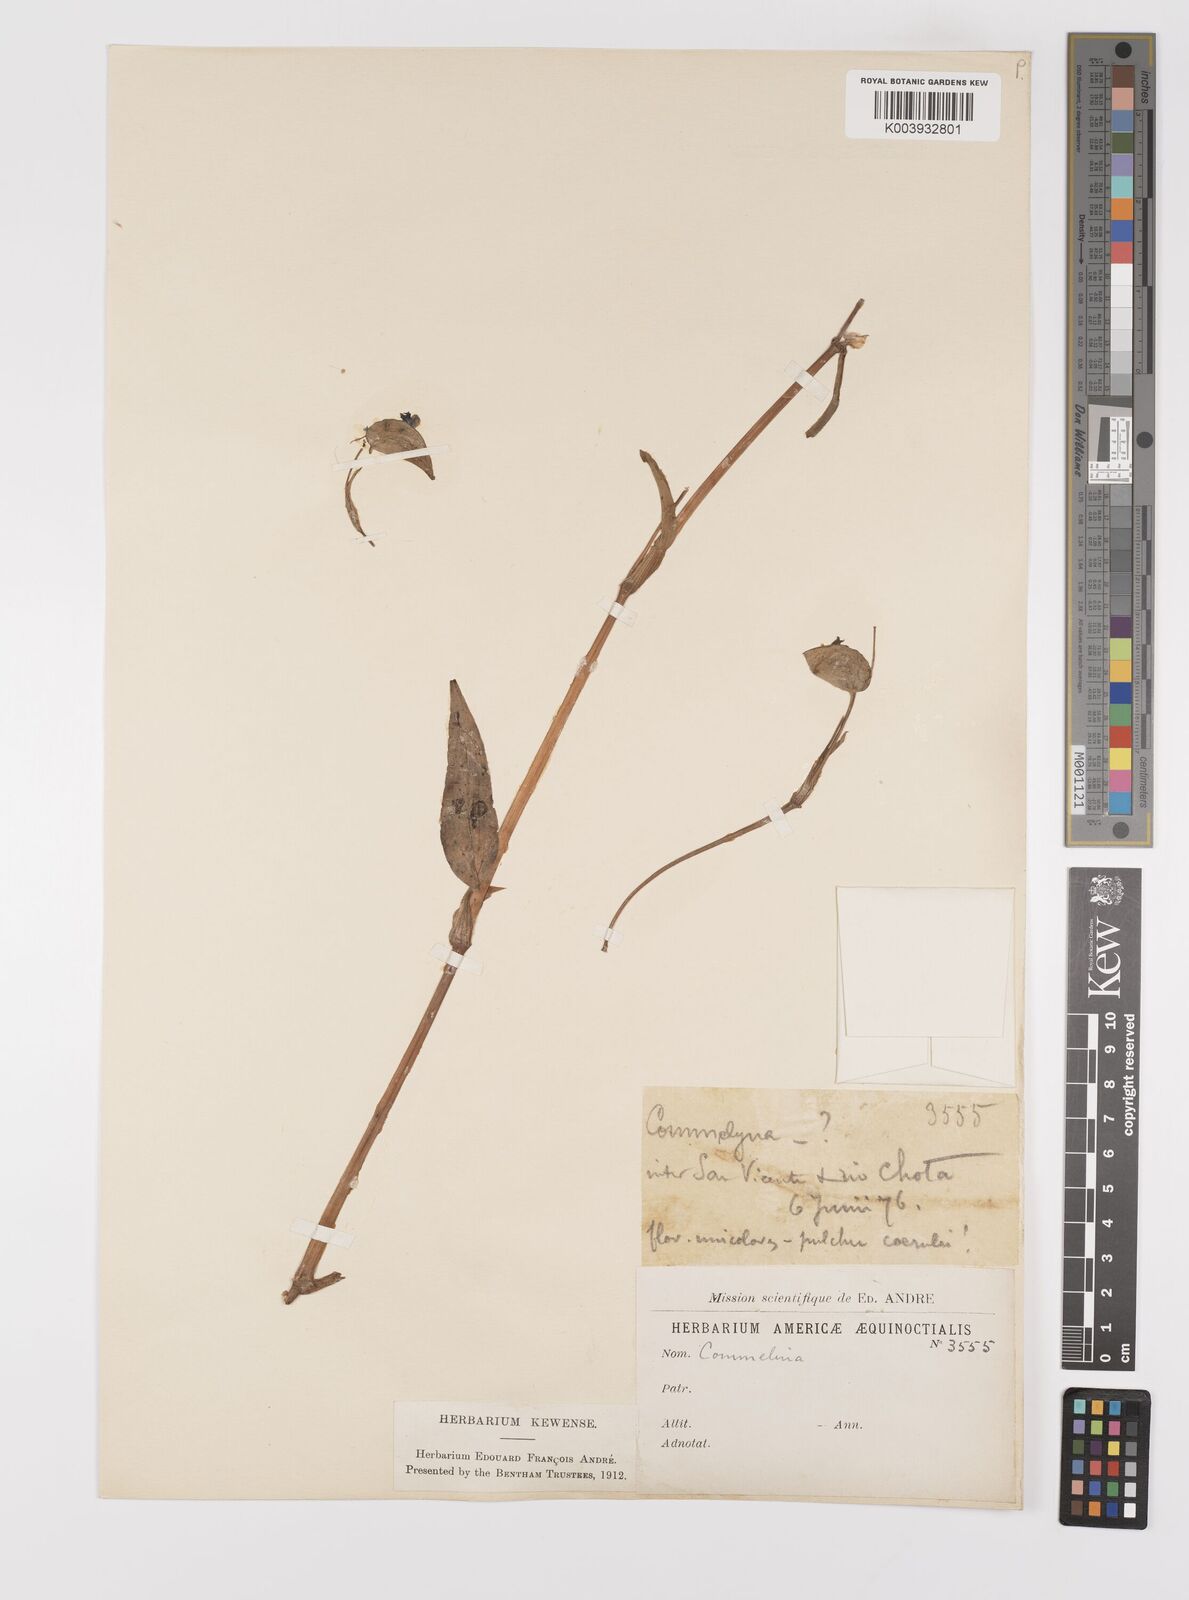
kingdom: Plantae
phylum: Tracheophyta
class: Liliopsida
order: Commelinales
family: Commelinaceae
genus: Commelina
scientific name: Commelina
